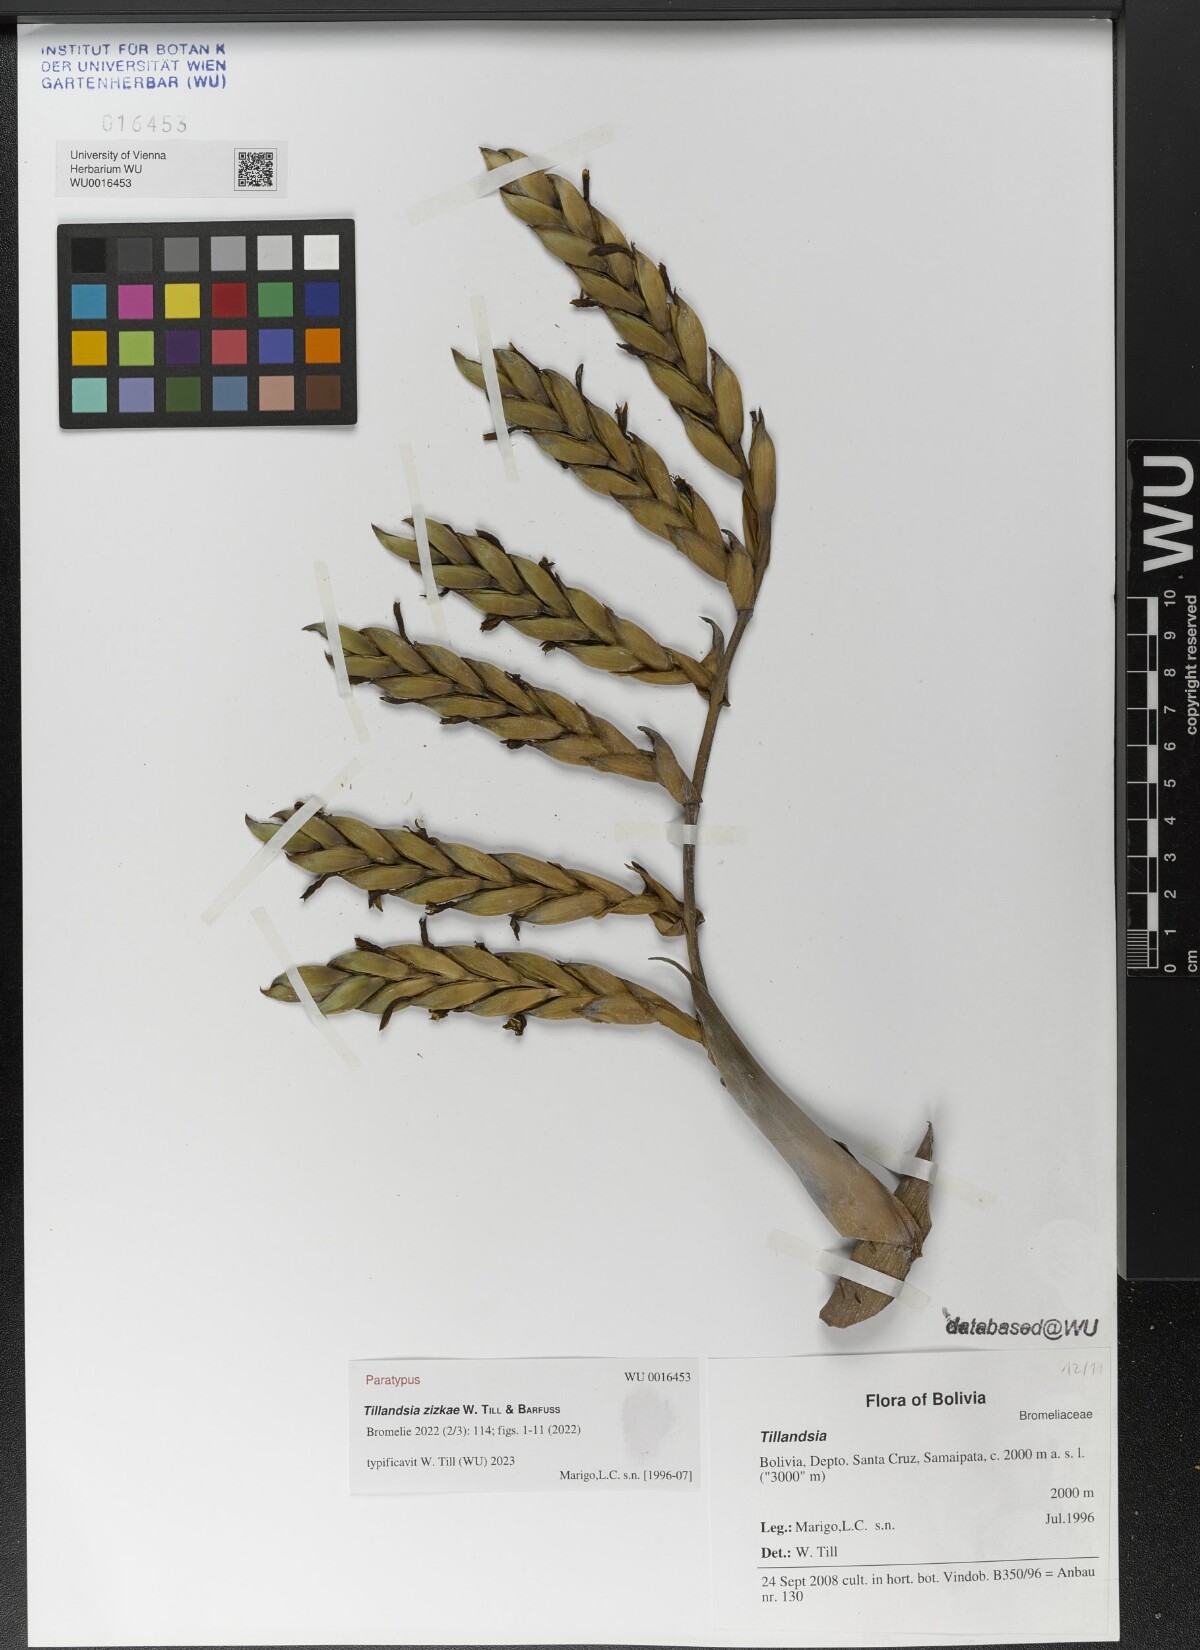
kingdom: Plantae
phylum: Tracheophyta
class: Liliopsida
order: Poales
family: Bromeliaceae
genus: Tillandsia
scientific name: Tillandsia
